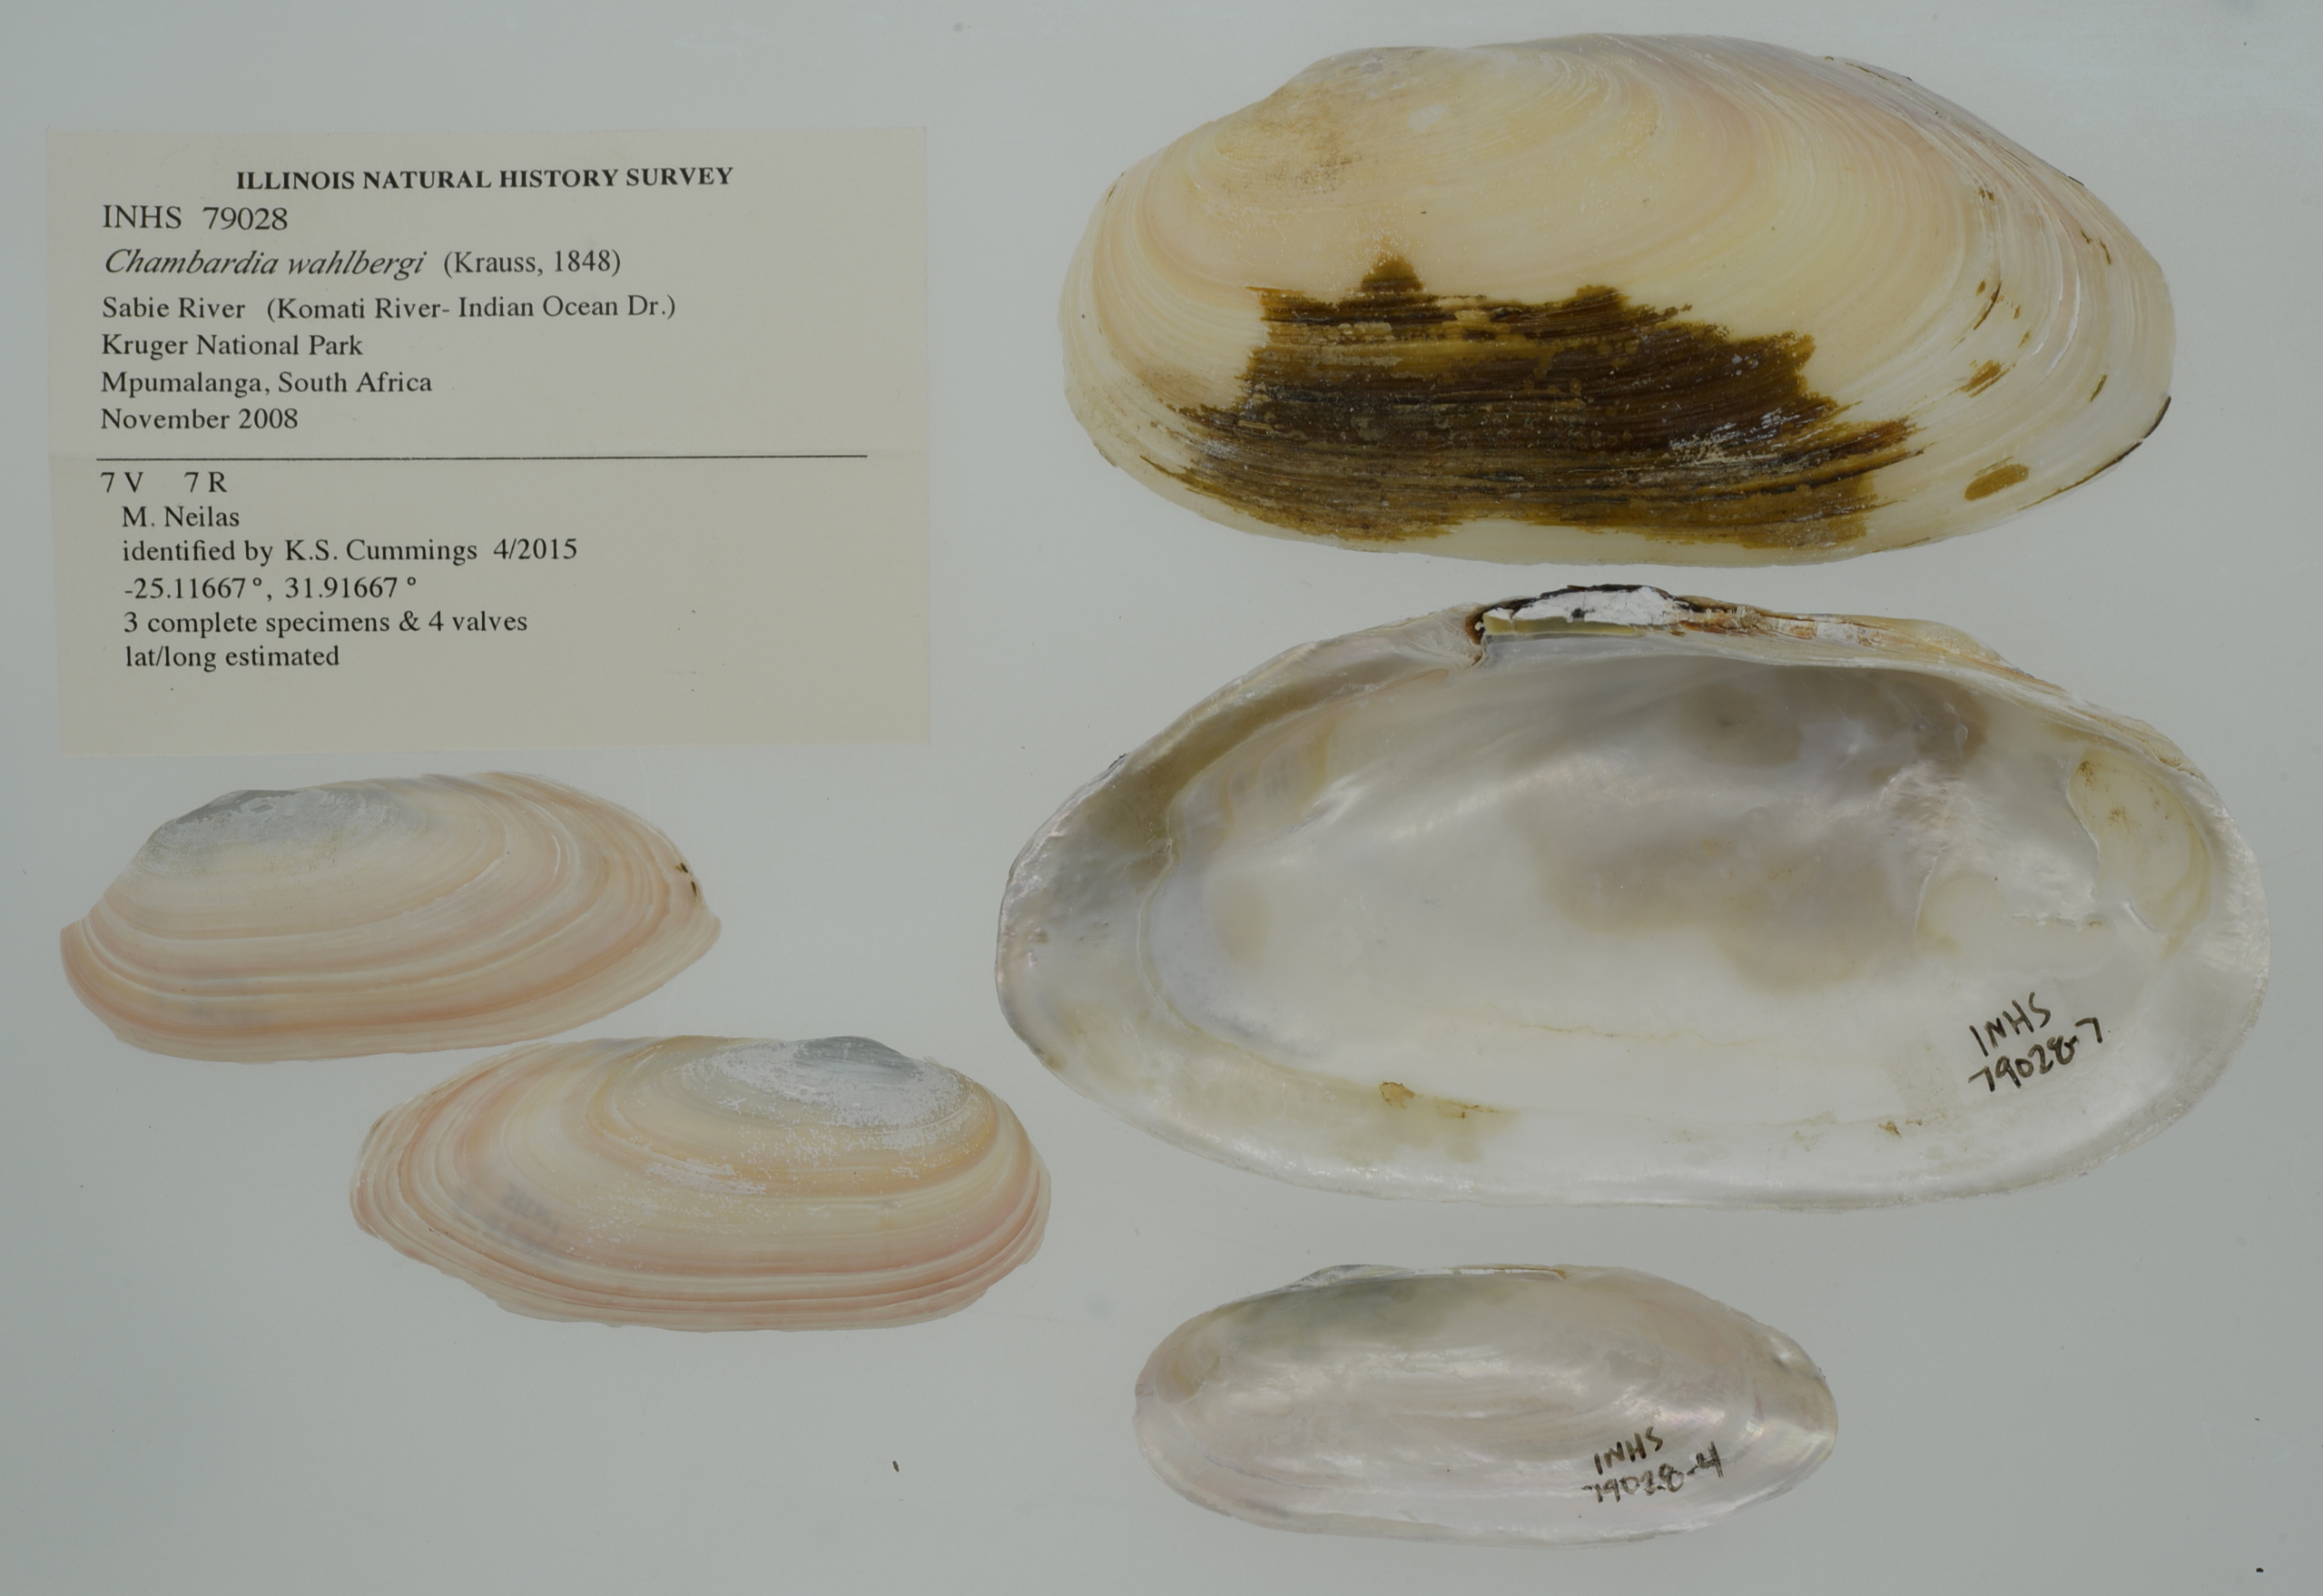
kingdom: Animalia
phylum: Mollusca
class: Bivalvia
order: Unionida
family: Iridinidae
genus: Chambardia
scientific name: Chambardia wahlbergi
